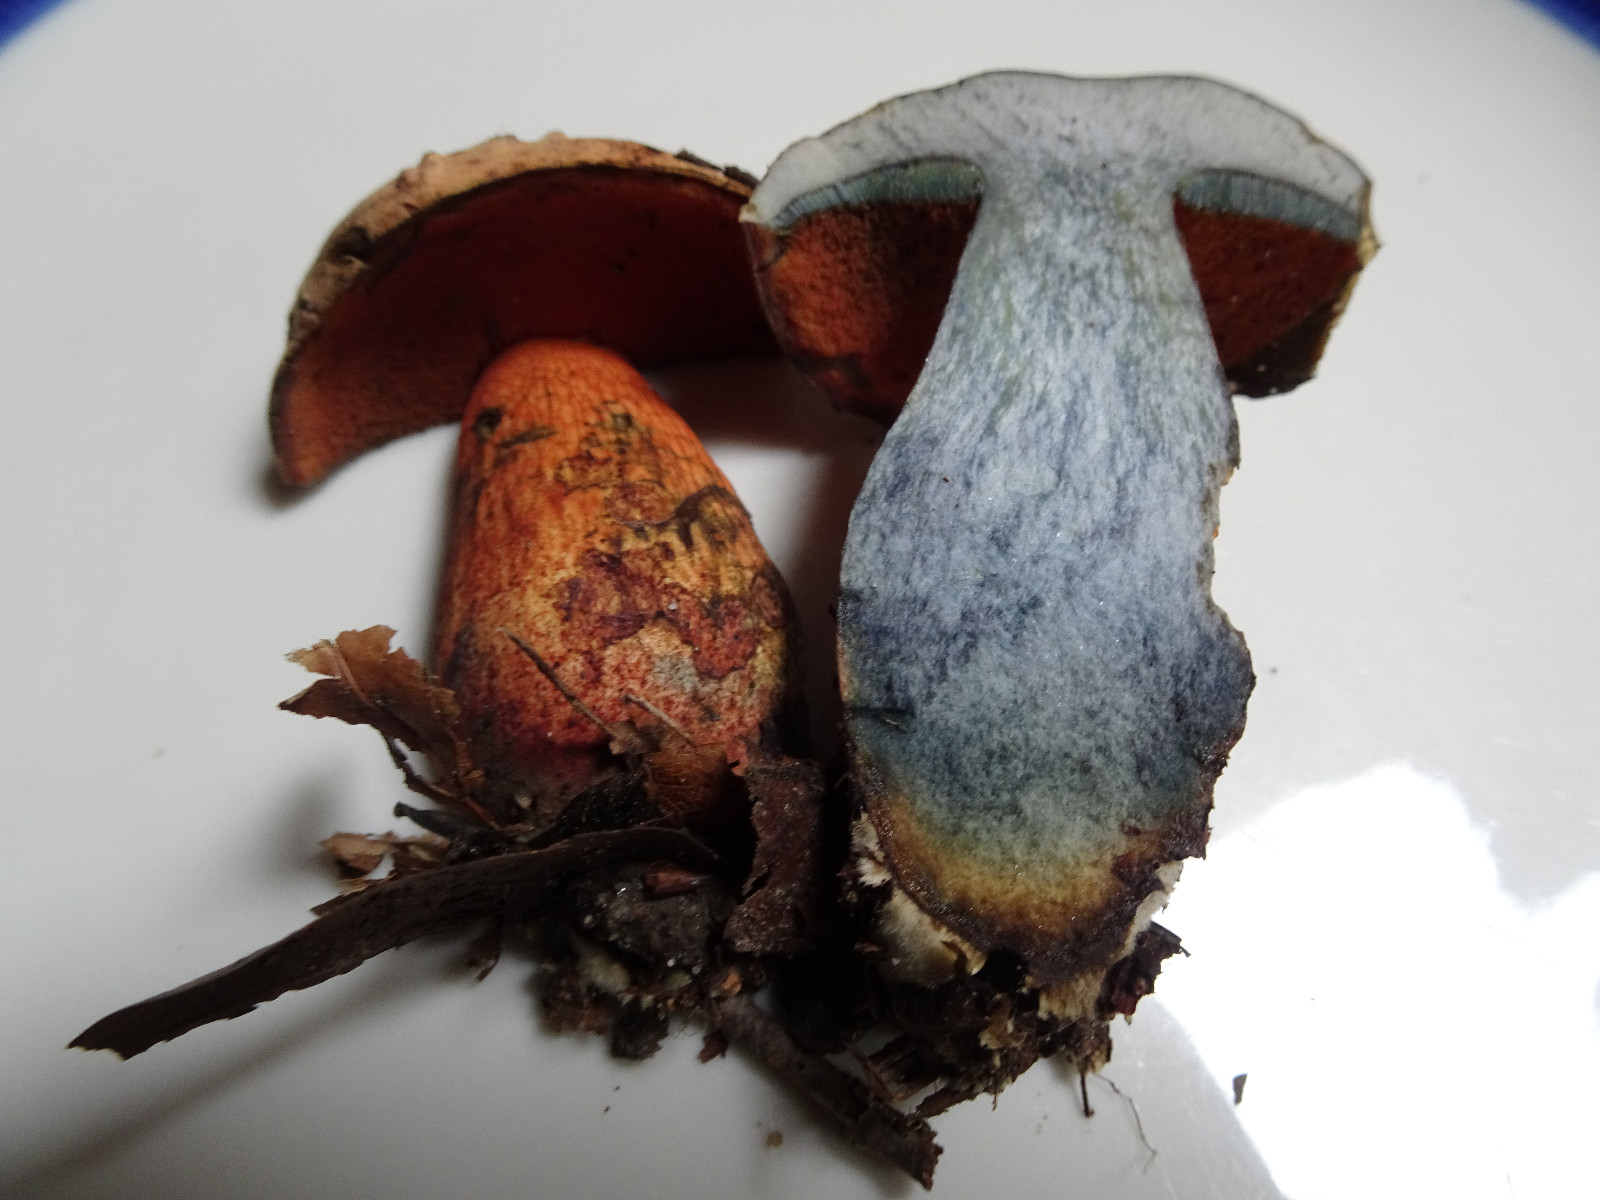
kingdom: Fungi
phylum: Basidiomycota
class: Agaricomycetes
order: Boletales
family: Boletaceae
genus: Suillellus
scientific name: Suillellus luridus
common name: netstokket indigorørhat
